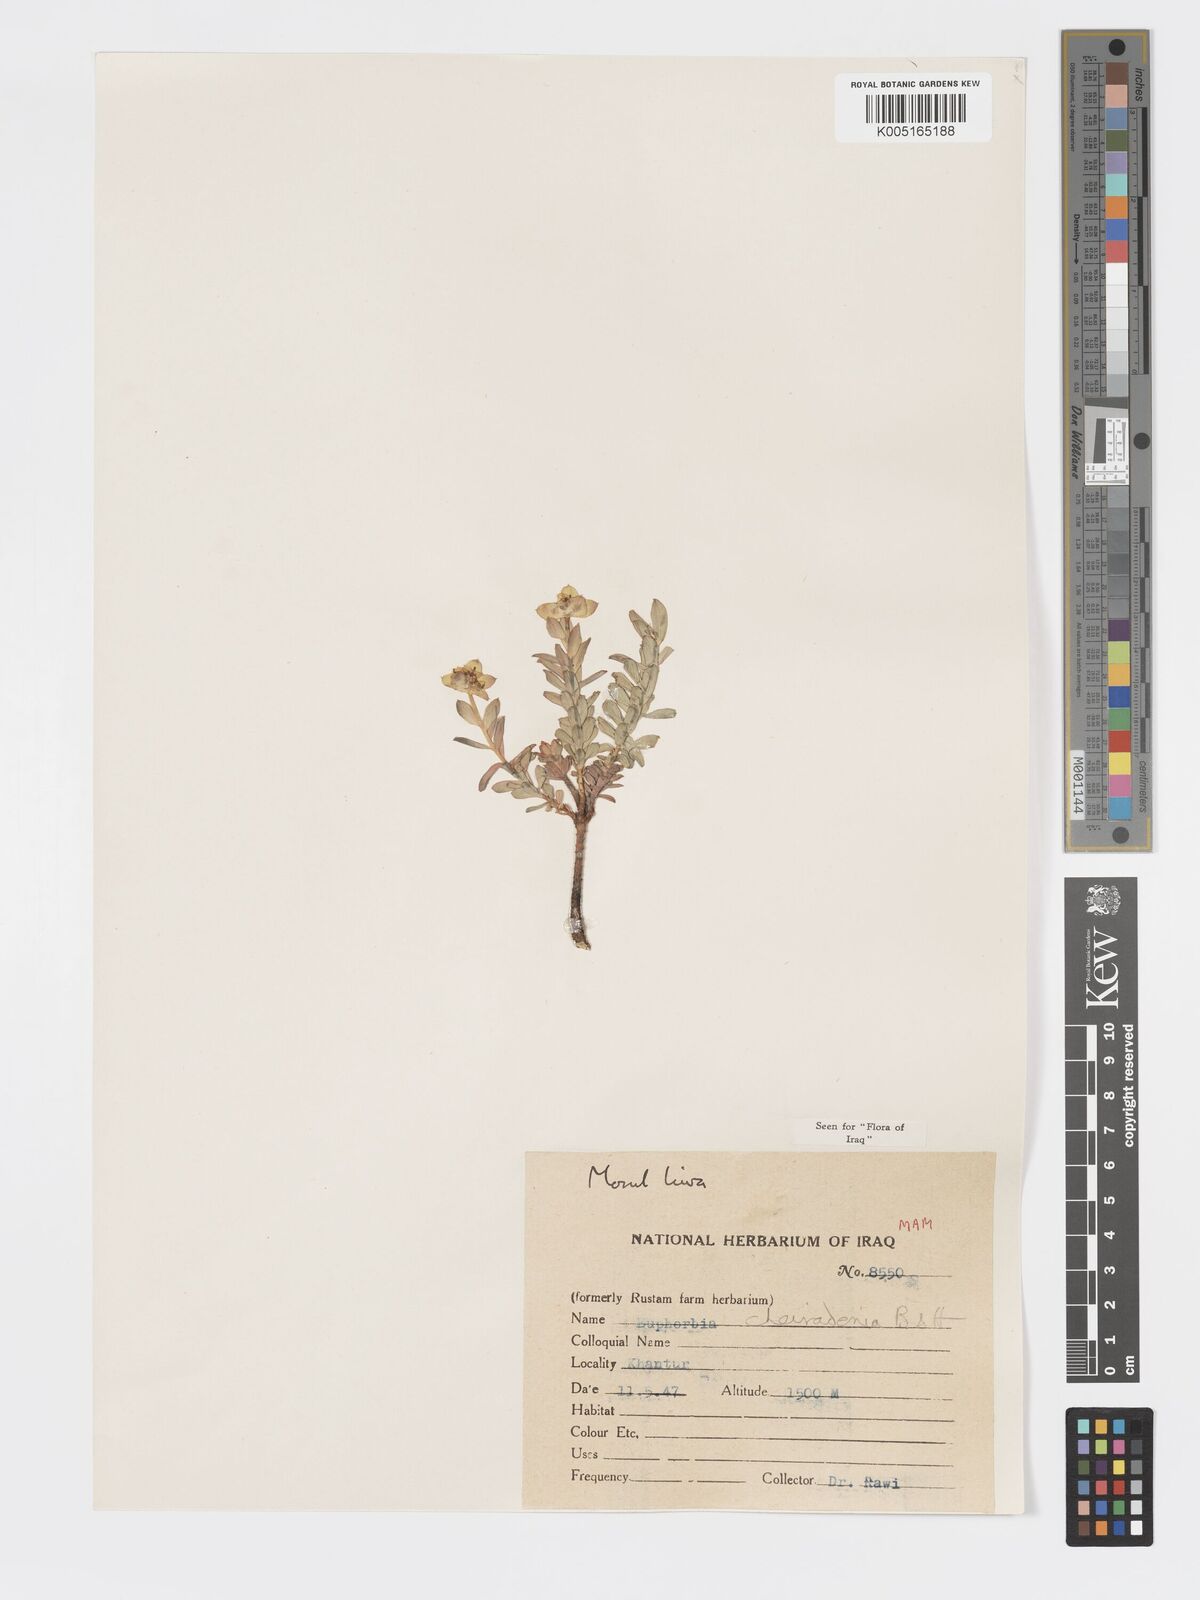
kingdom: Plantae
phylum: Tracheophyta
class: Magnoliopsida
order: Malpighiales
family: Euphorbiaceae
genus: Euphorbia
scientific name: Euphorbia cheiradenia
